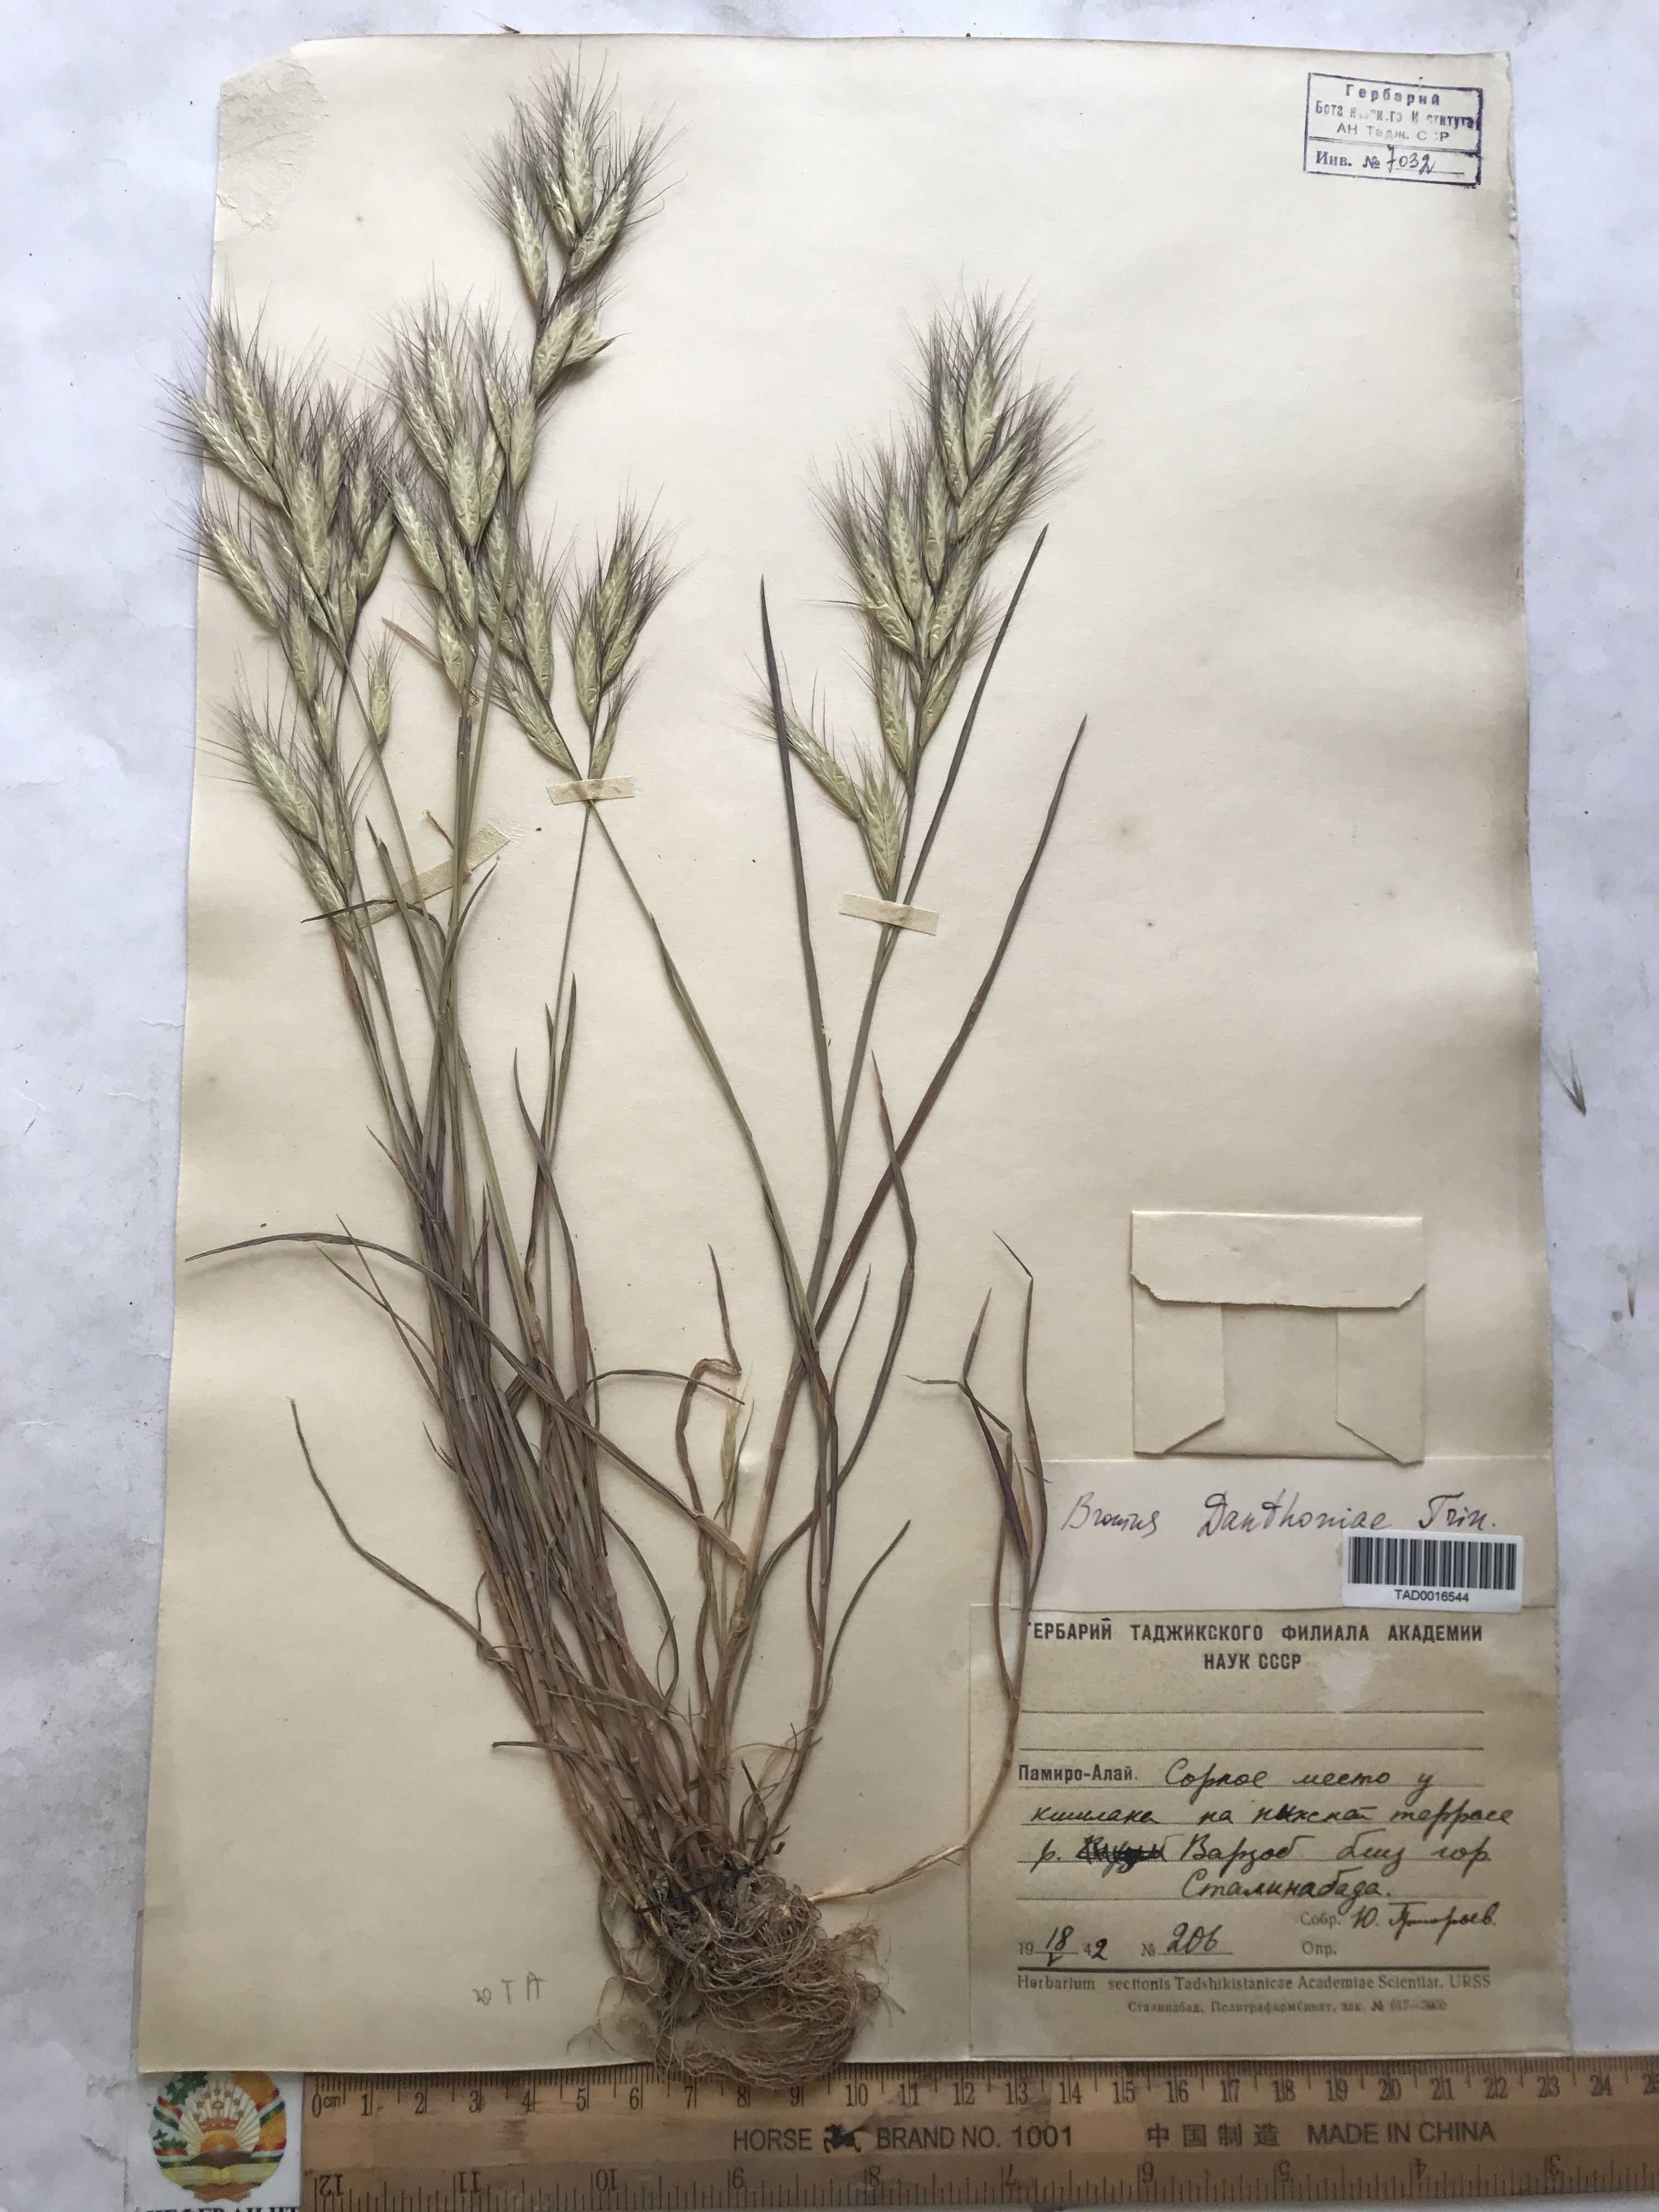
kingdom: Plantae
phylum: Tracheophyta
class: Liliopsida
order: Poales
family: Poaceae
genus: Bromus
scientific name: Bromus danthoniae
